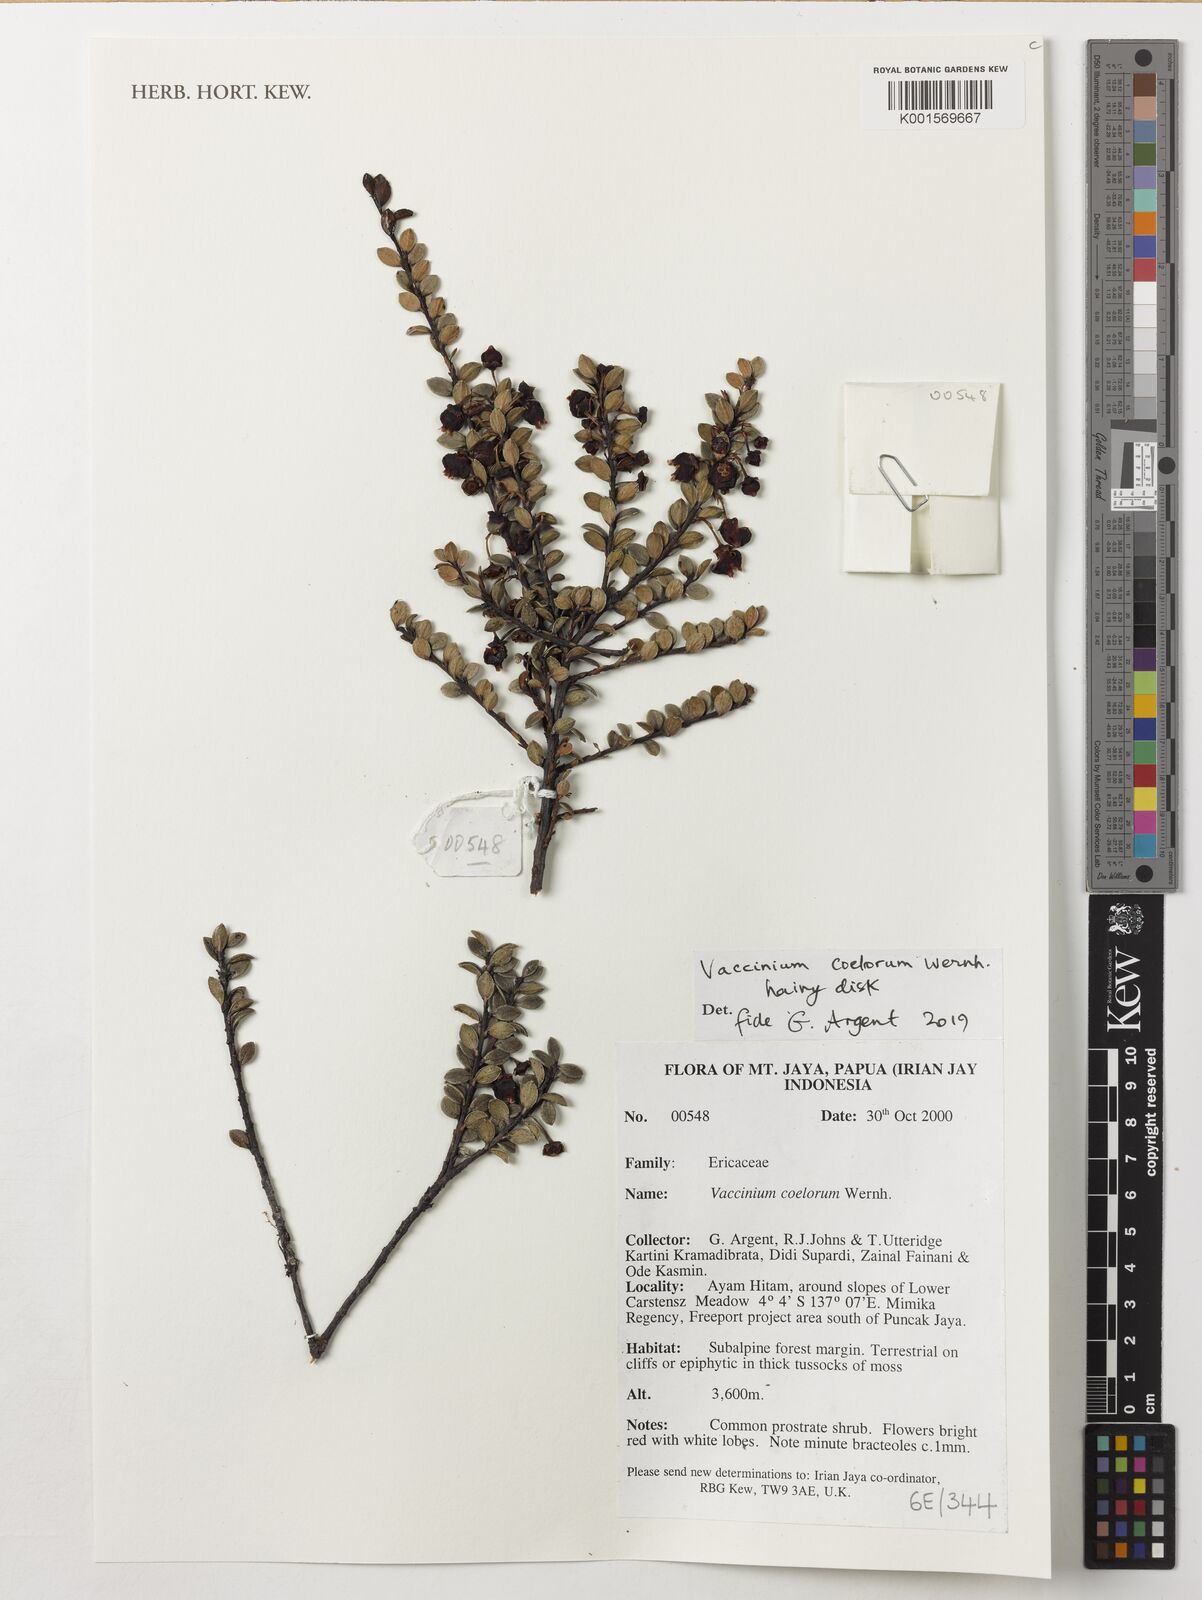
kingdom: Plantae
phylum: Tracheophyta
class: Magnoliopsida
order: Ericales
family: Ericaceae
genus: Vaccinium
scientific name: Vaccinium coelorum
